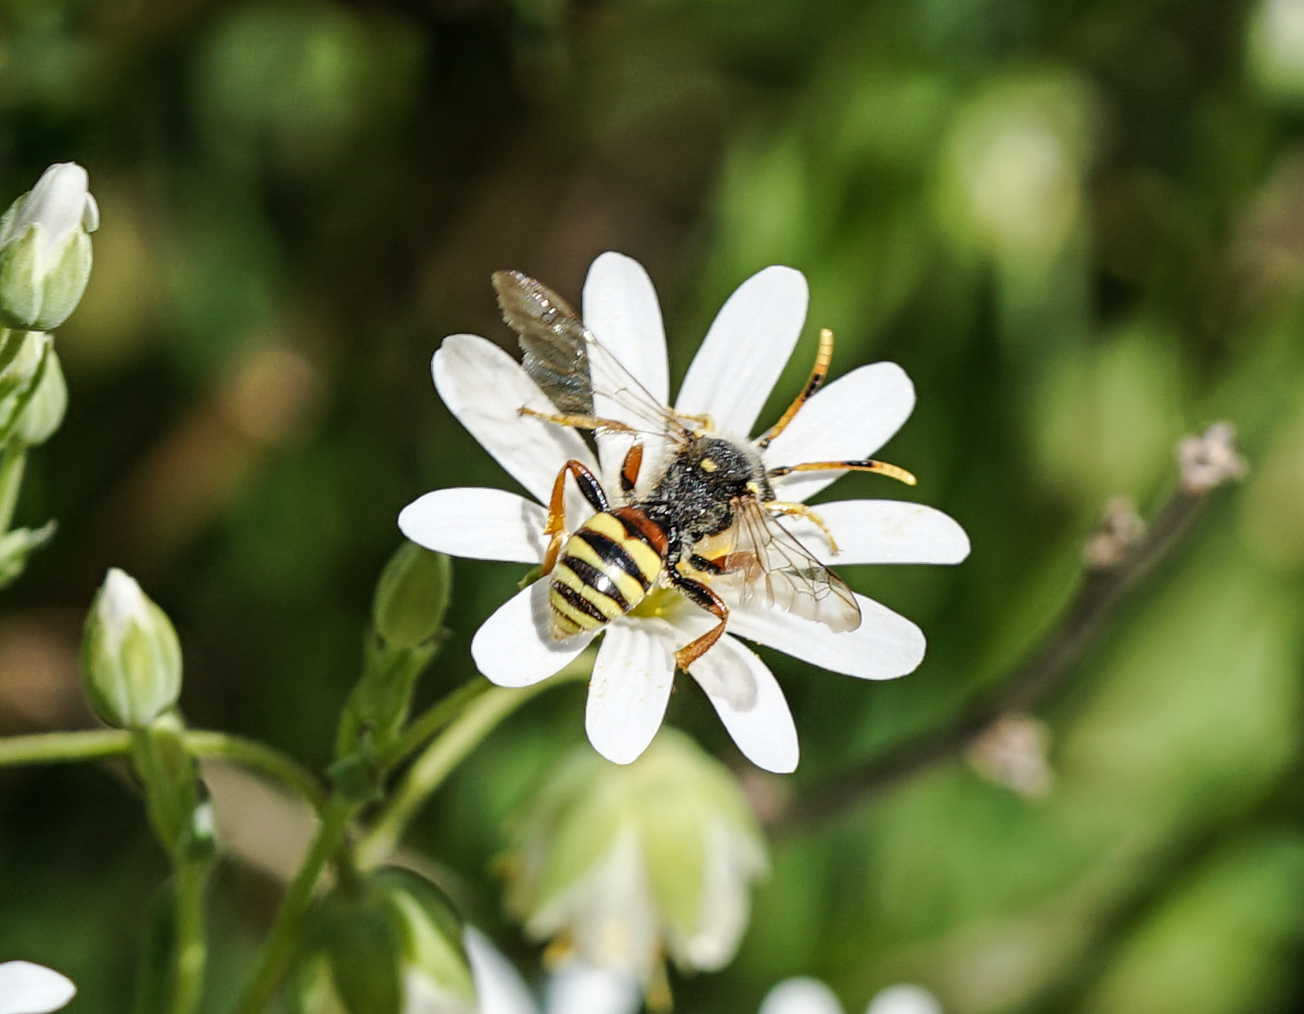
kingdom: Animalia
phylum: Arthropoda
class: Insecta
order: Hymenoptera
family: Apidae
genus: Nomada
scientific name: Nomada
